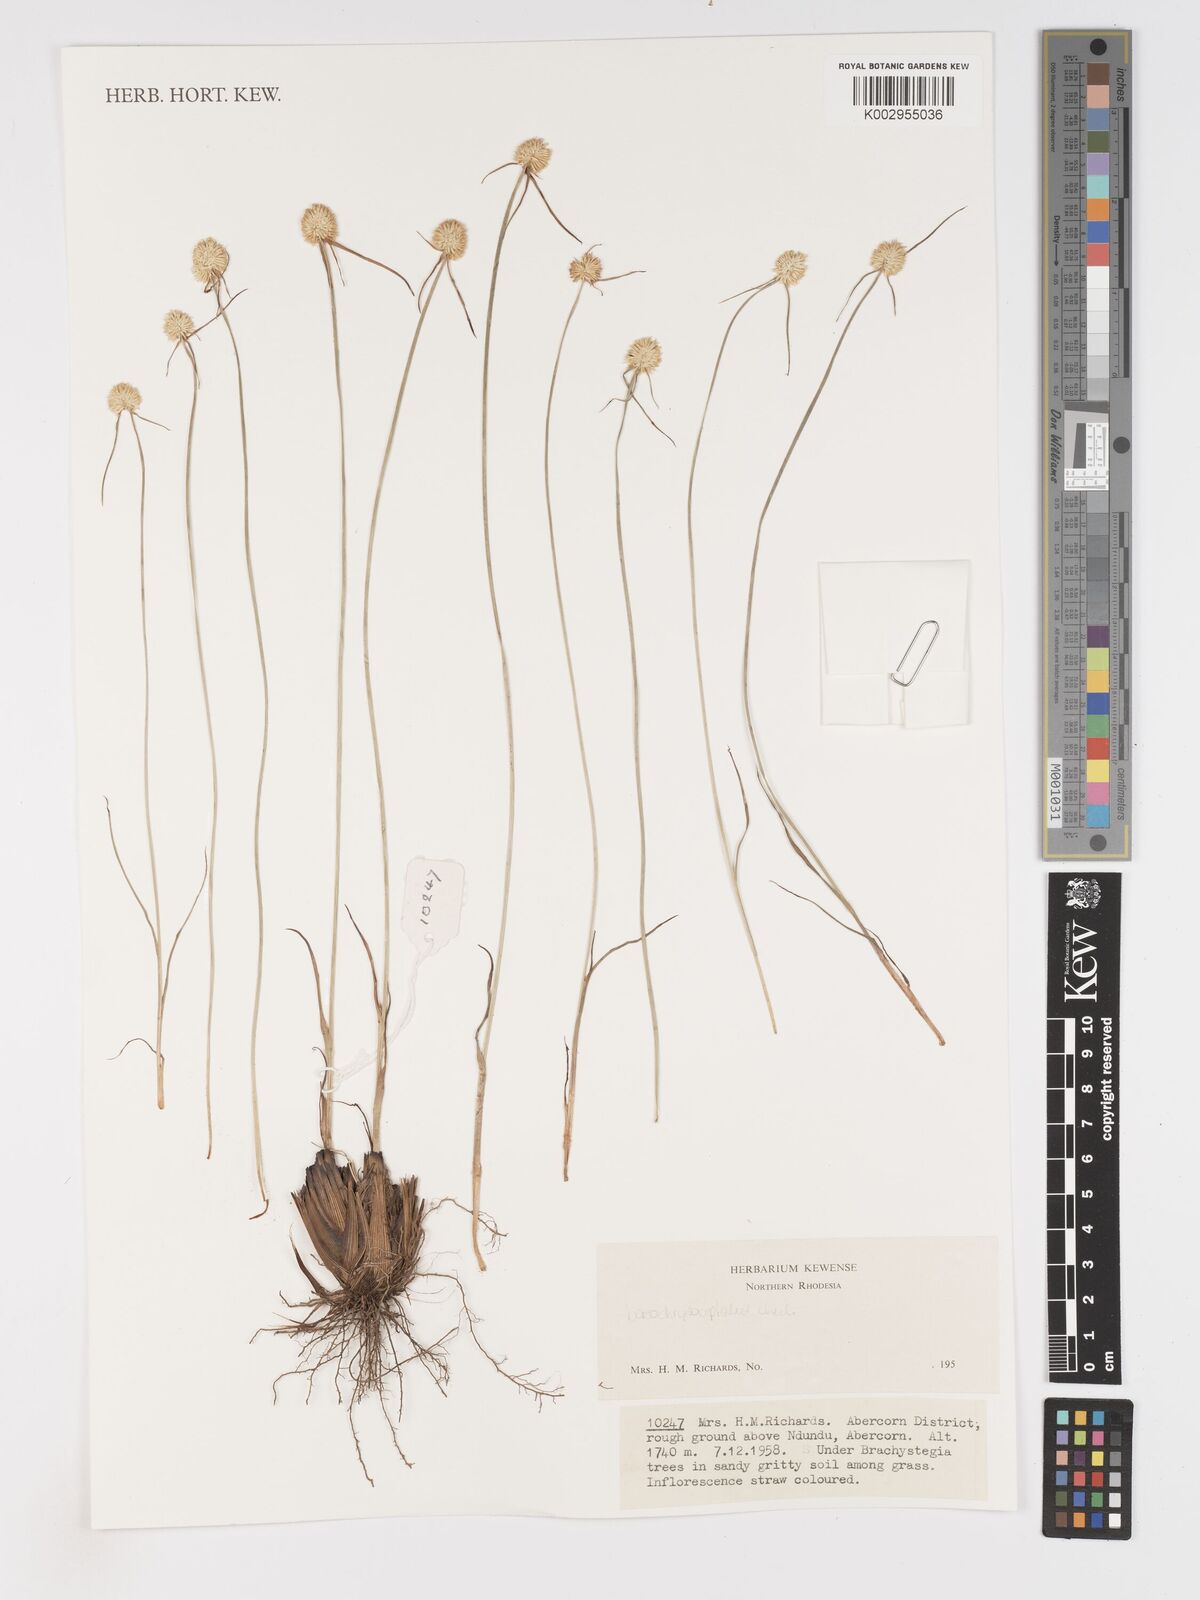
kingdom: Plantae
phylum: Tracheophyta
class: Liliopsida
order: Poales
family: Cyperaceae
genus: Cyperus
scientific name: Cyperus mollipes
